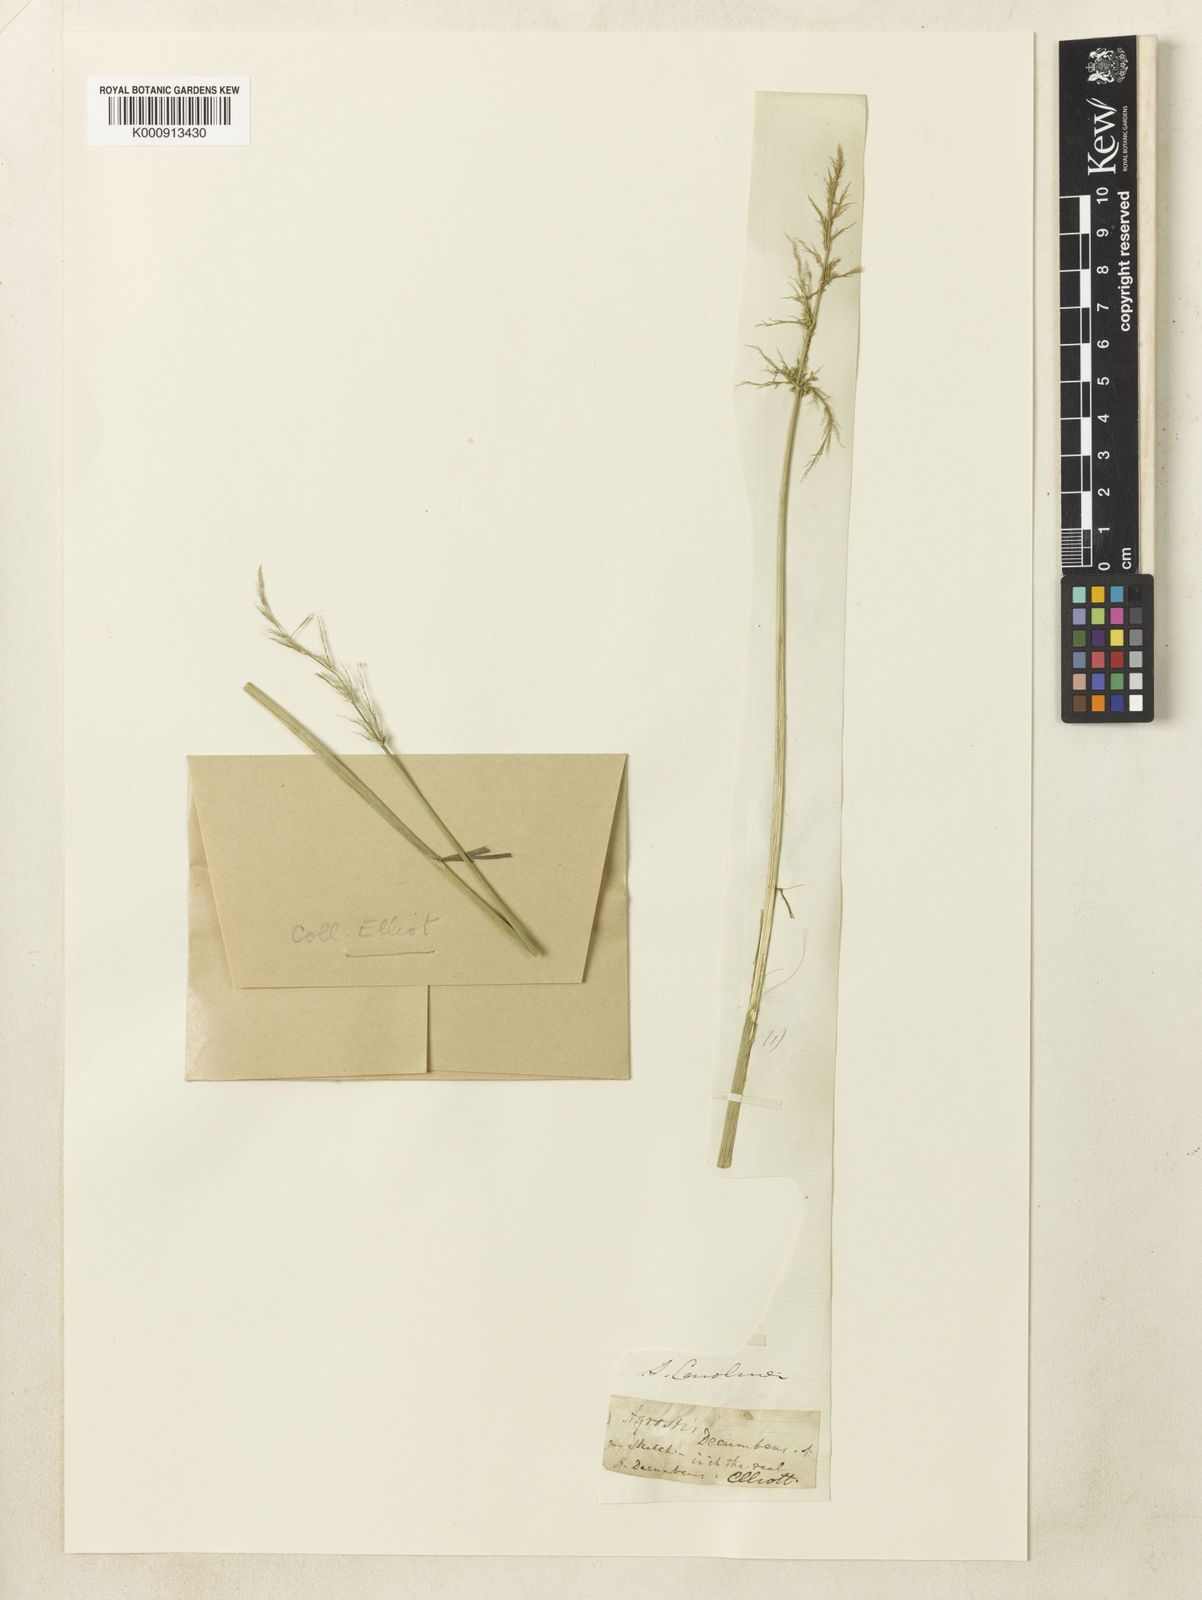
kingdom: Plantae
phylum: Tracheophyta
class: Liliopsida
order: Poales
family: Poaceae
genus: Polypogon
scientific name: Polypogon viridis
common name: Water bent
